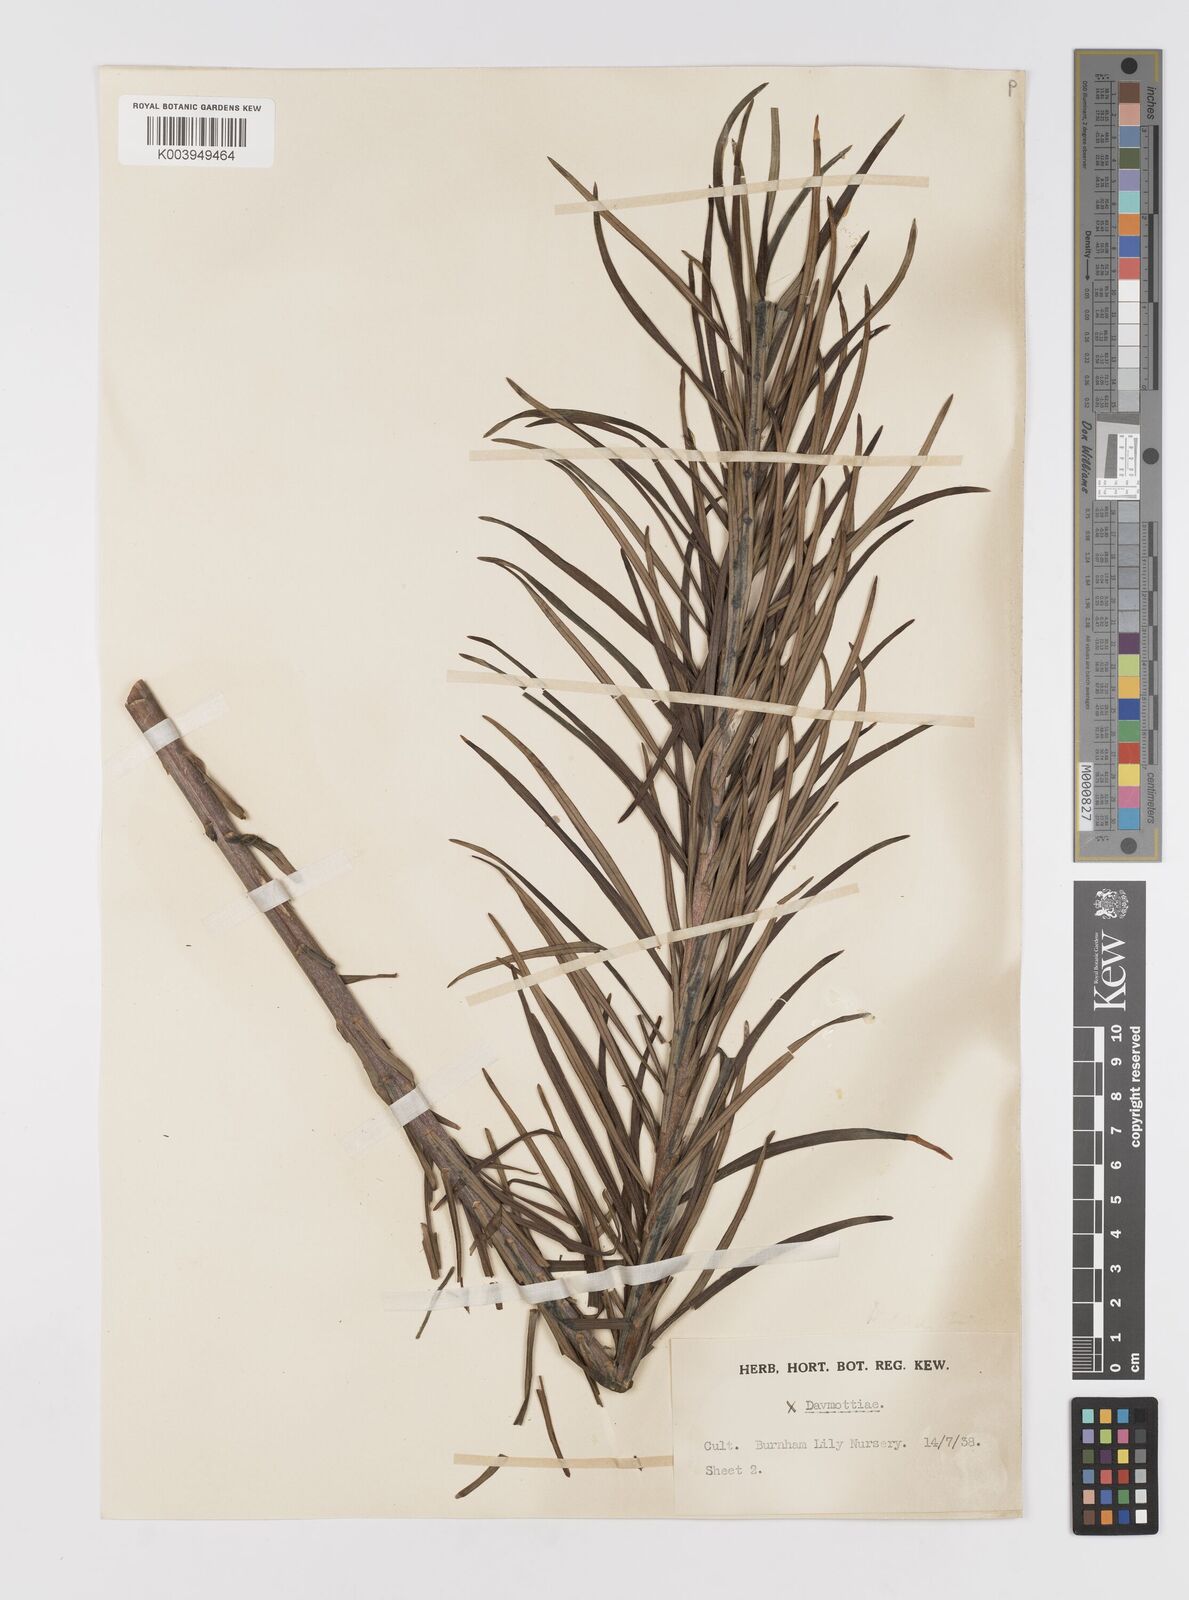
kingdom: Plantae
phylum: Tracheophyta
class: Liliopsida
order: Liliales
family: Liliaceae
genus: Lilium
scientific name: Lilium
